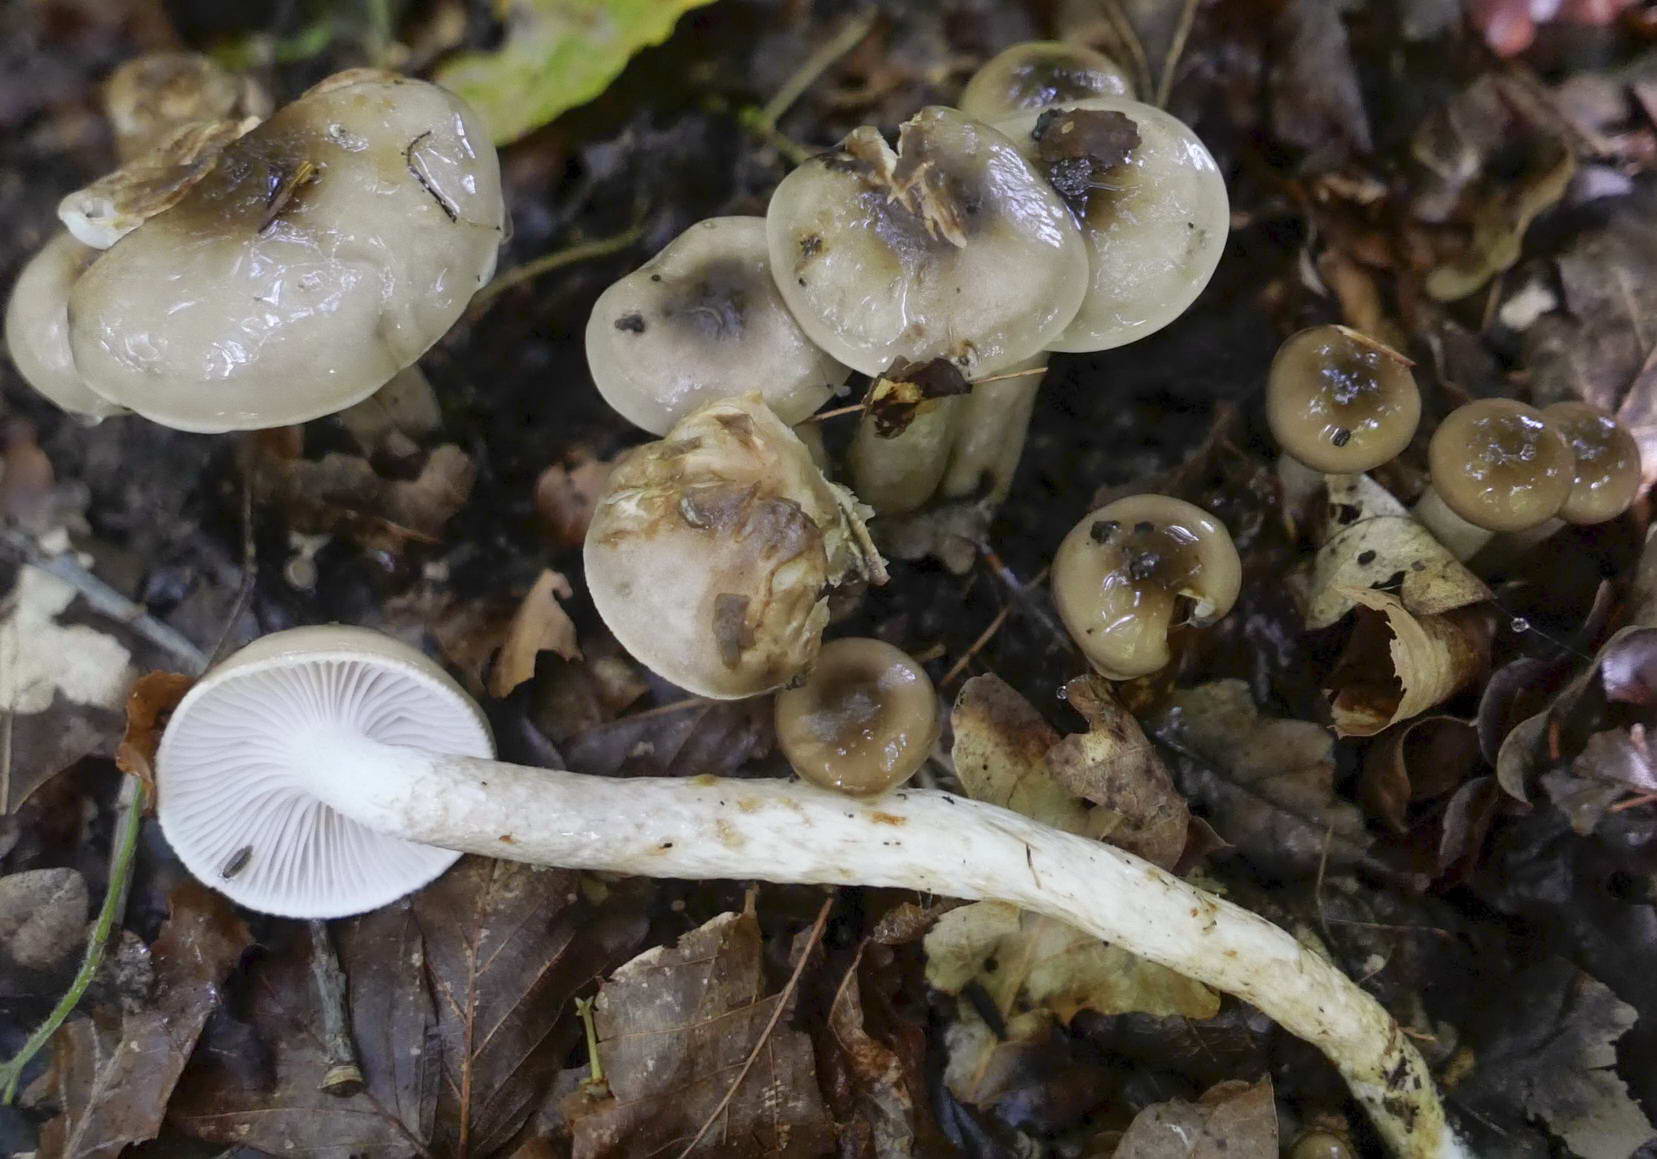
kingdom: Fungi
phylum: Basidiomycota
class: Agaricomycetes
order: Agaricales
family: Hygrophoraceae
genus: Hygrophorus
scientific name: Hygrophorus mesotephrus
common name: askegrå sneglehat
